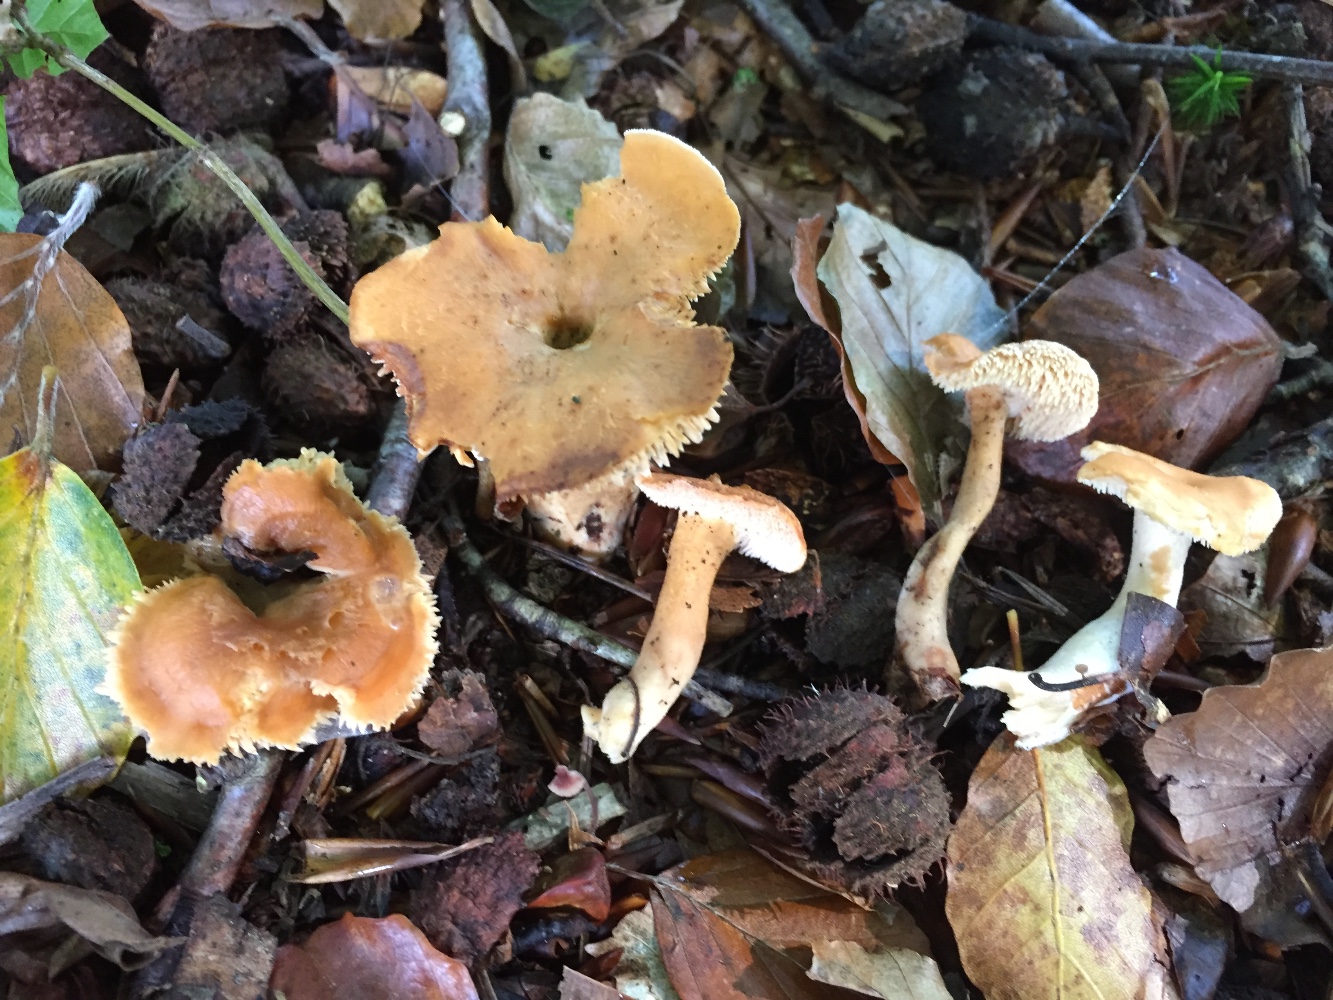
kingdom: Fungi
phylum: Basidiomycota
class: Agaricomycetes
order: Cantharellales
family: Hydnaceae
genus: Hydnum
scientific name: Hydnum umbilicatum
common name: navle-pigsvamp
